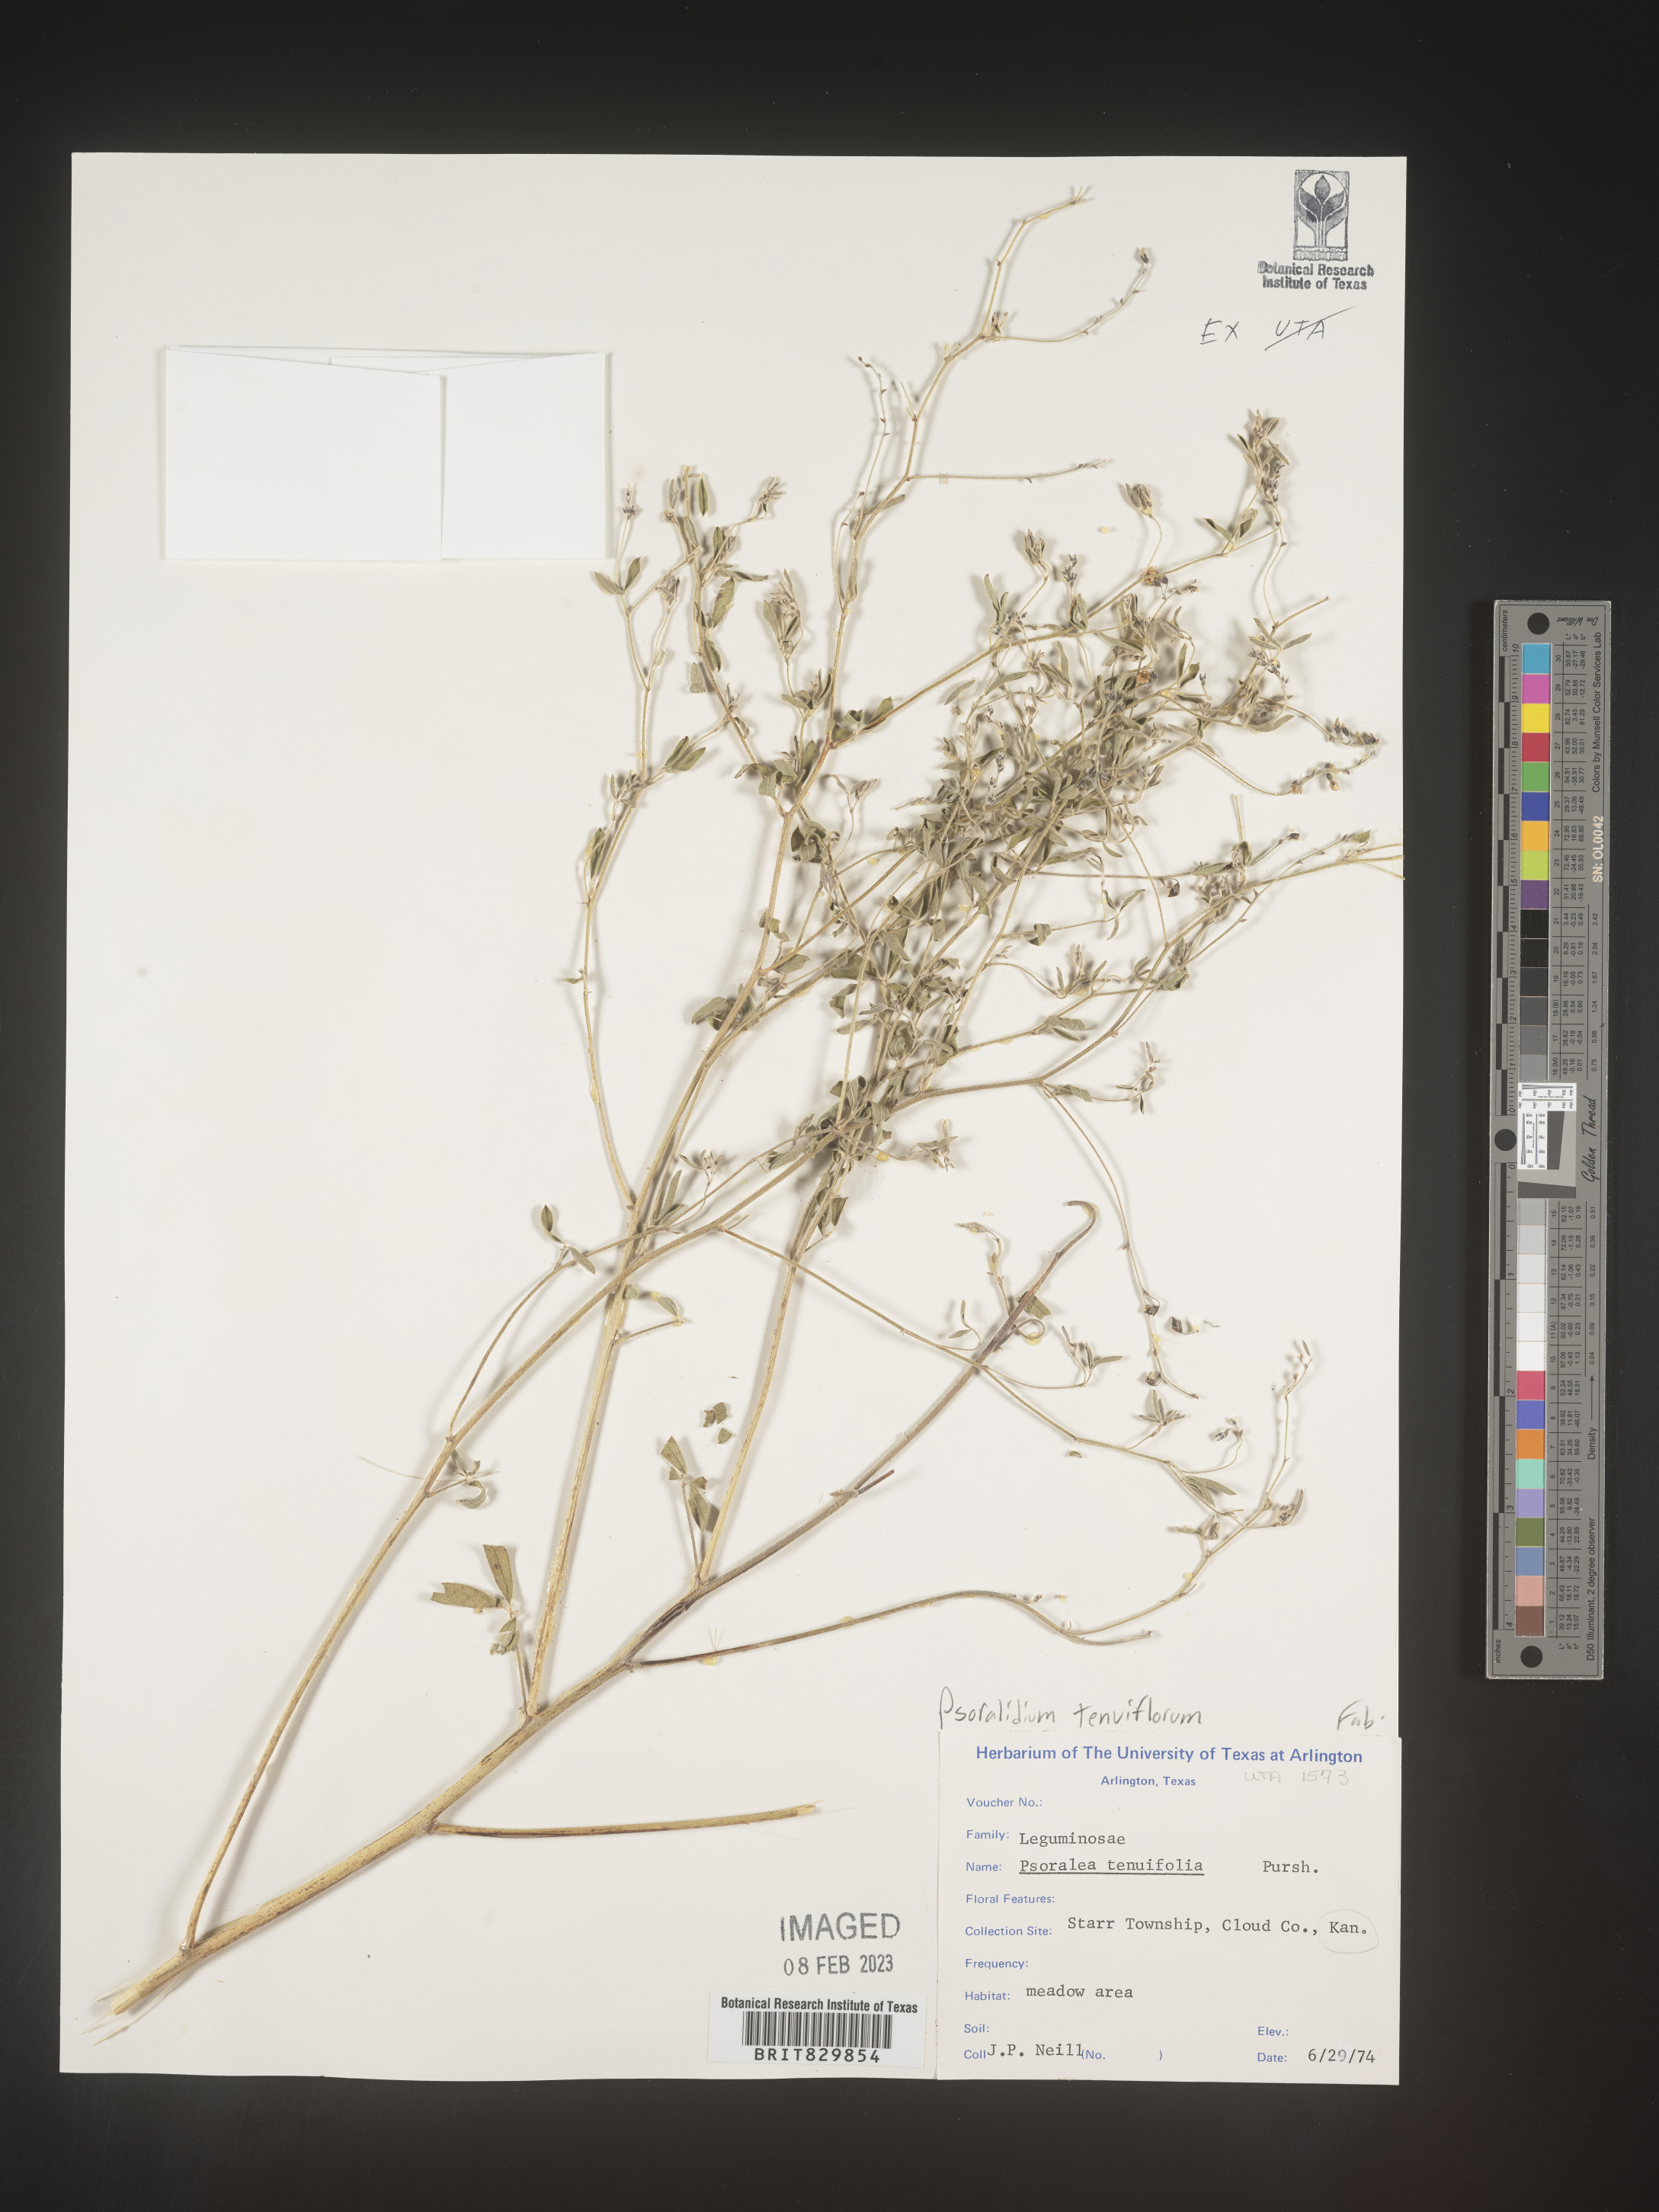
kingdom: Plantae
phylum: Tracheophyta
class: Magnoliopsida
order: Fabales
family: Fabaceae
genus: Pediomelum
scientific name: Pediomelum tenuiflorum
